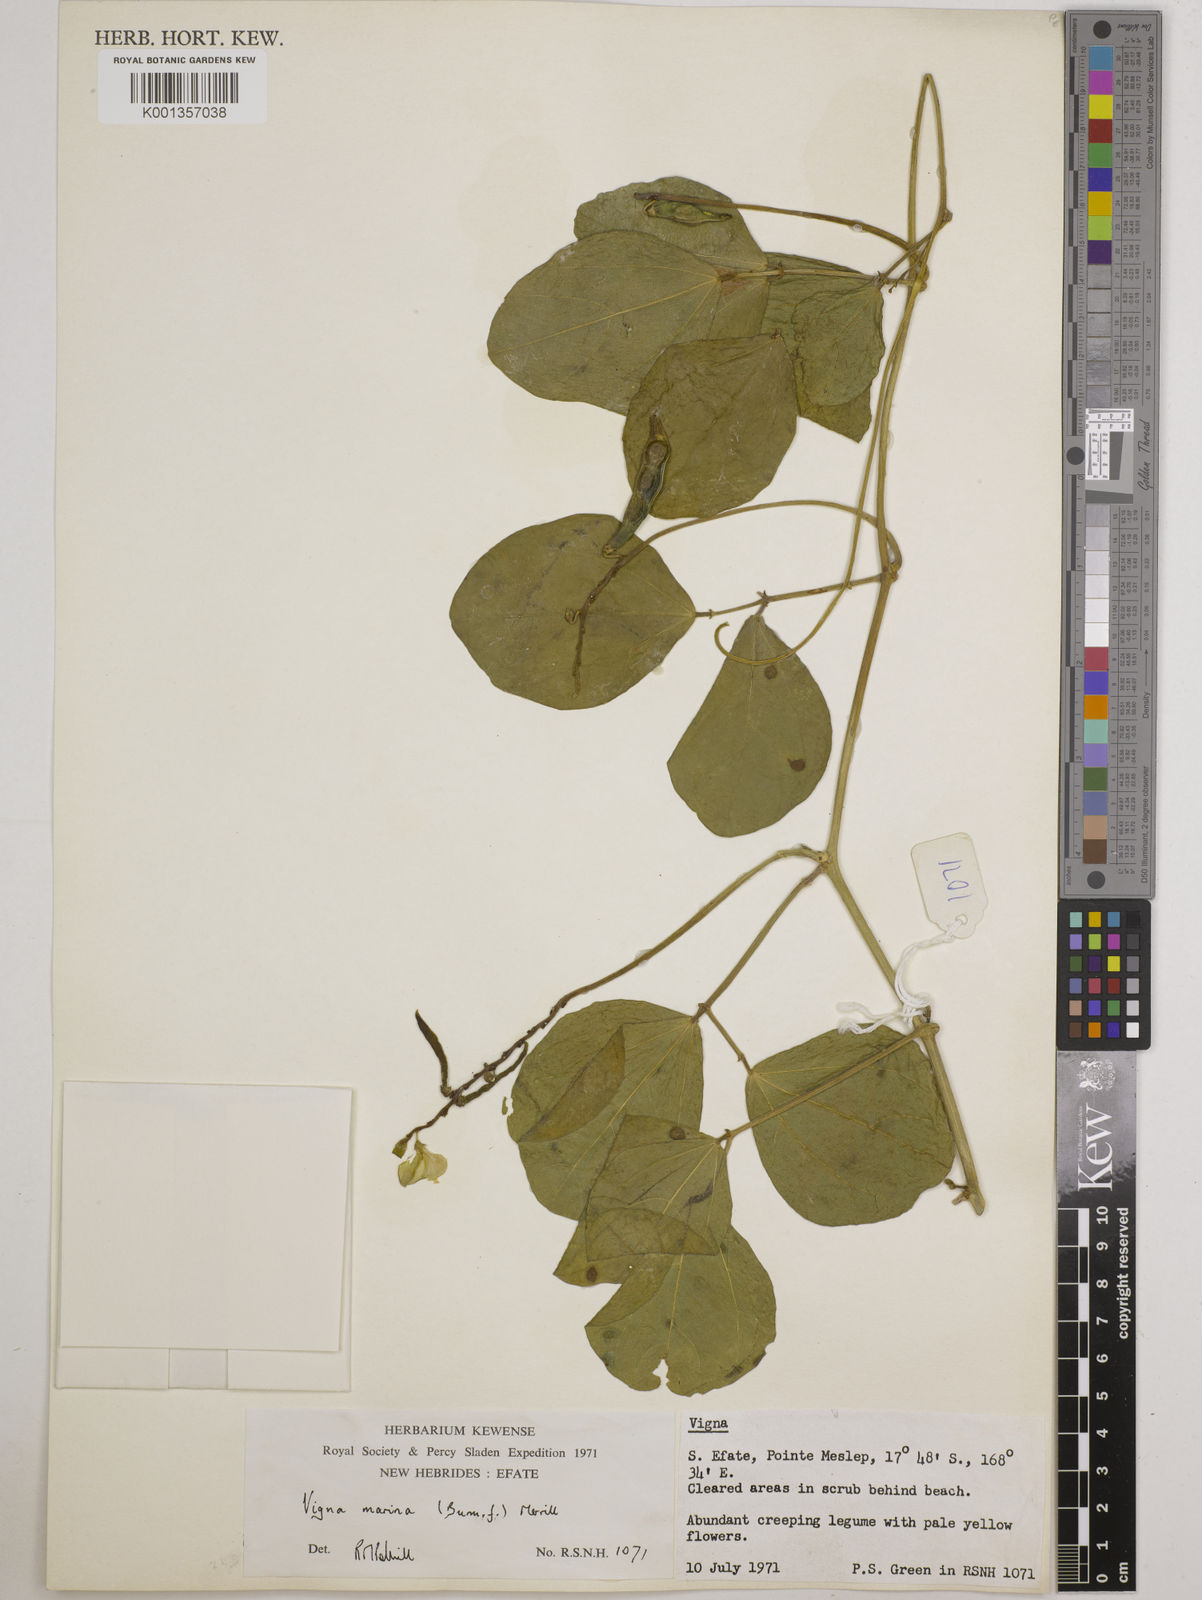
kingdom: Plantae
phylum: Tracheophyta
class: Magnoliopsida
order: Fabales
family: Fabaceae
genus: Vigna
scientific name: Vigna marina
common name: Dune-bean
